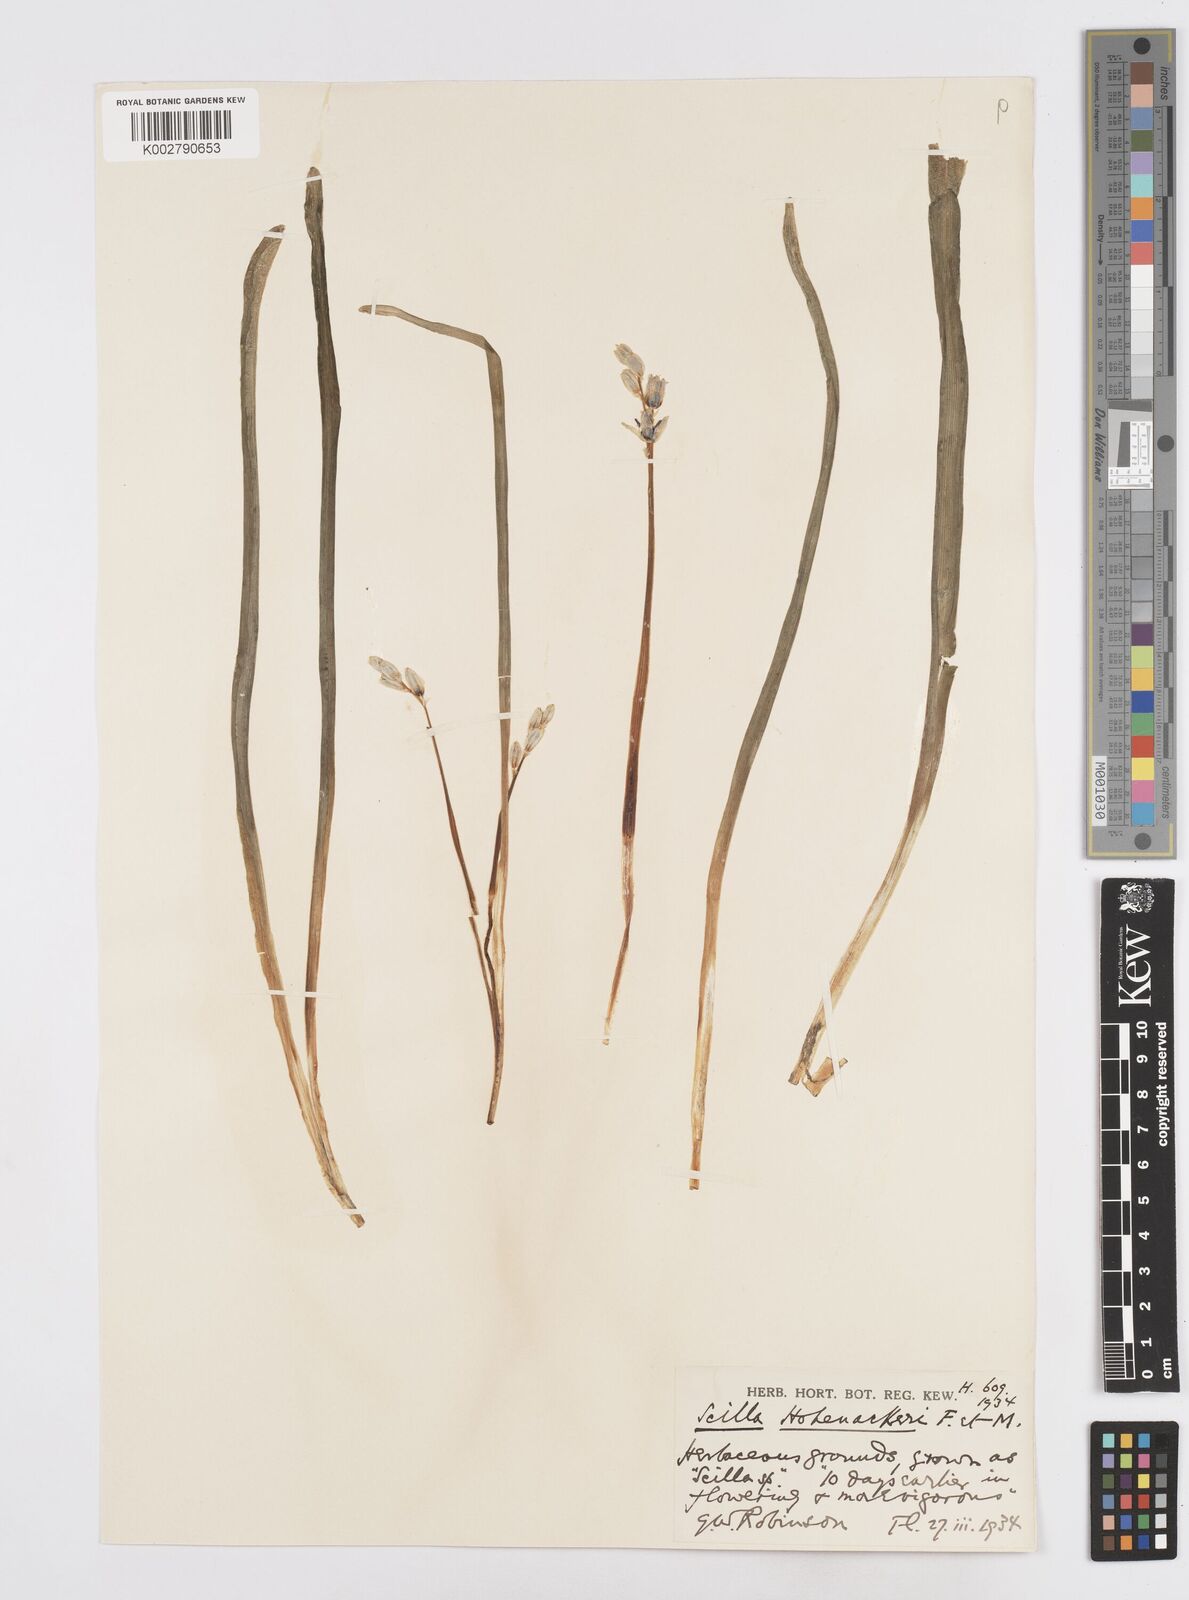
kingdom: Plantae
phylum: Tracheophyta
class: Liliopsida
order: Asparagales
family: Asparagaceae
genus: Scilla
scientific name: Scilla cilicica
